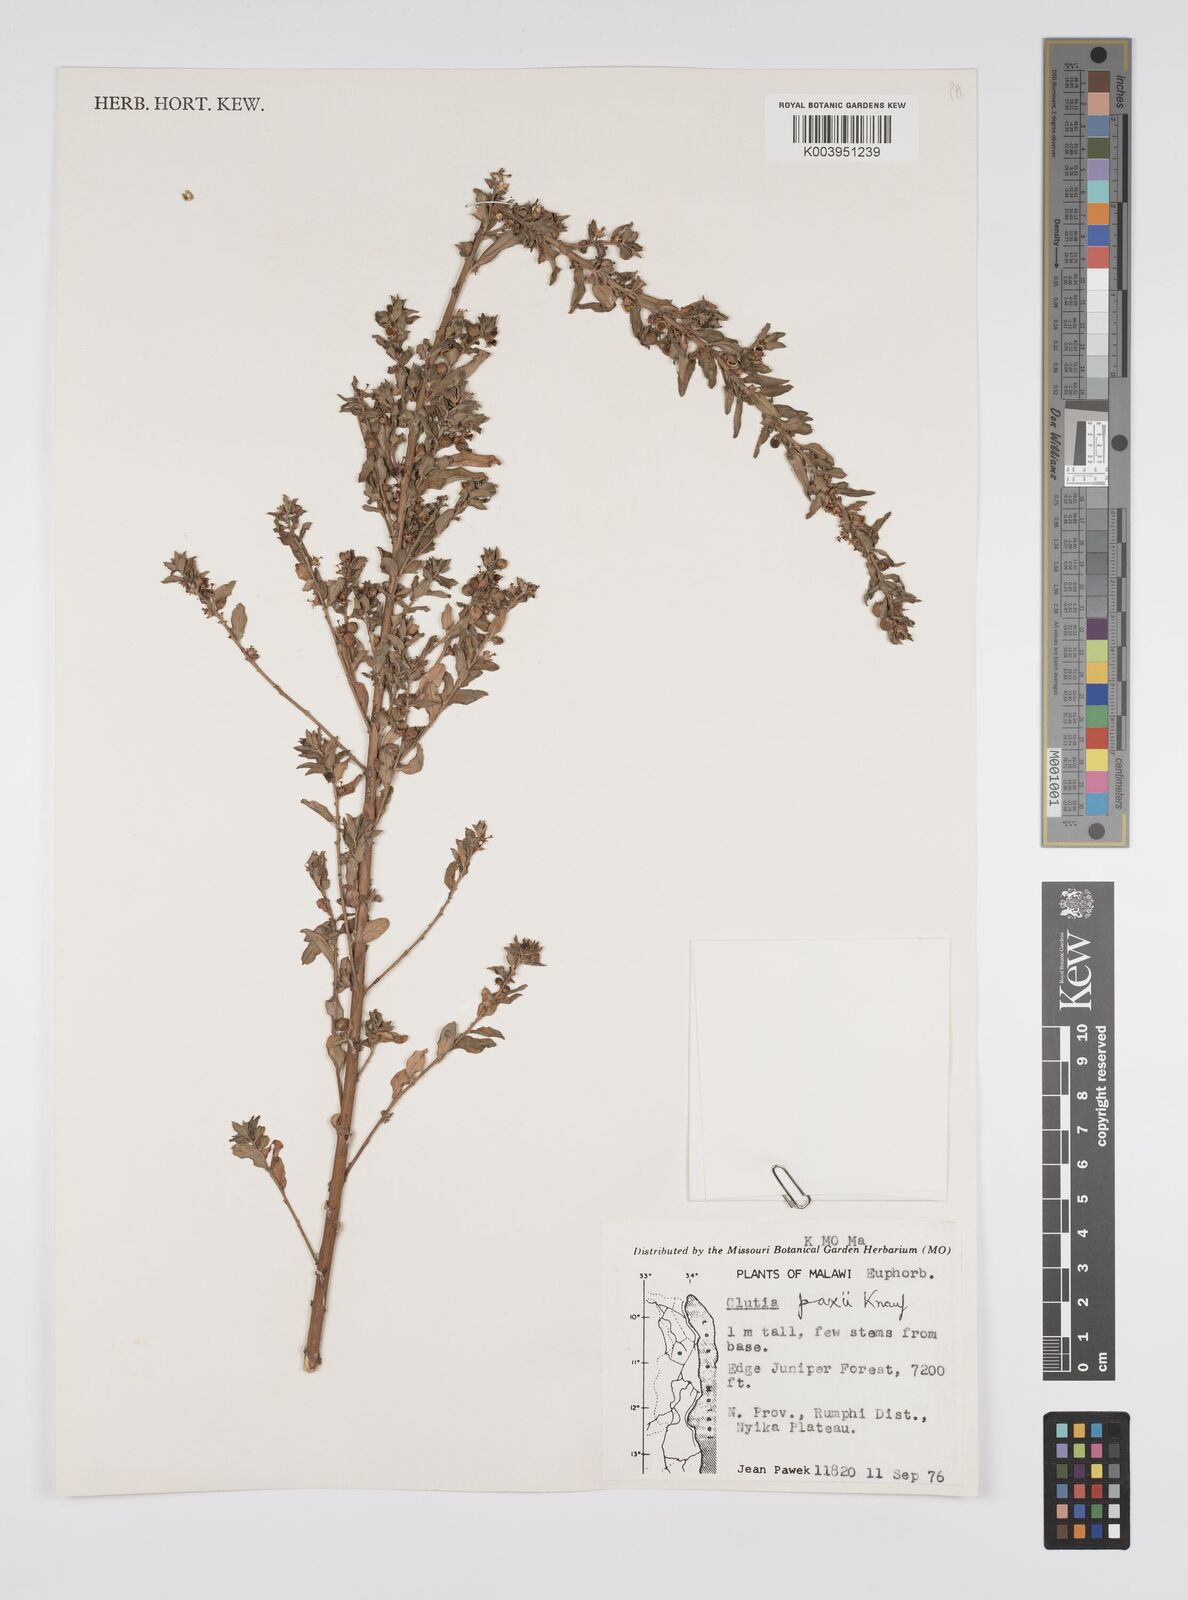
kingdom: Plantae
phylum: Tracheophyta
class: Magnoliopsida
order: Malpighiales
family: Peraceae
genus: Clutia
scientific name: Clutia paxii
